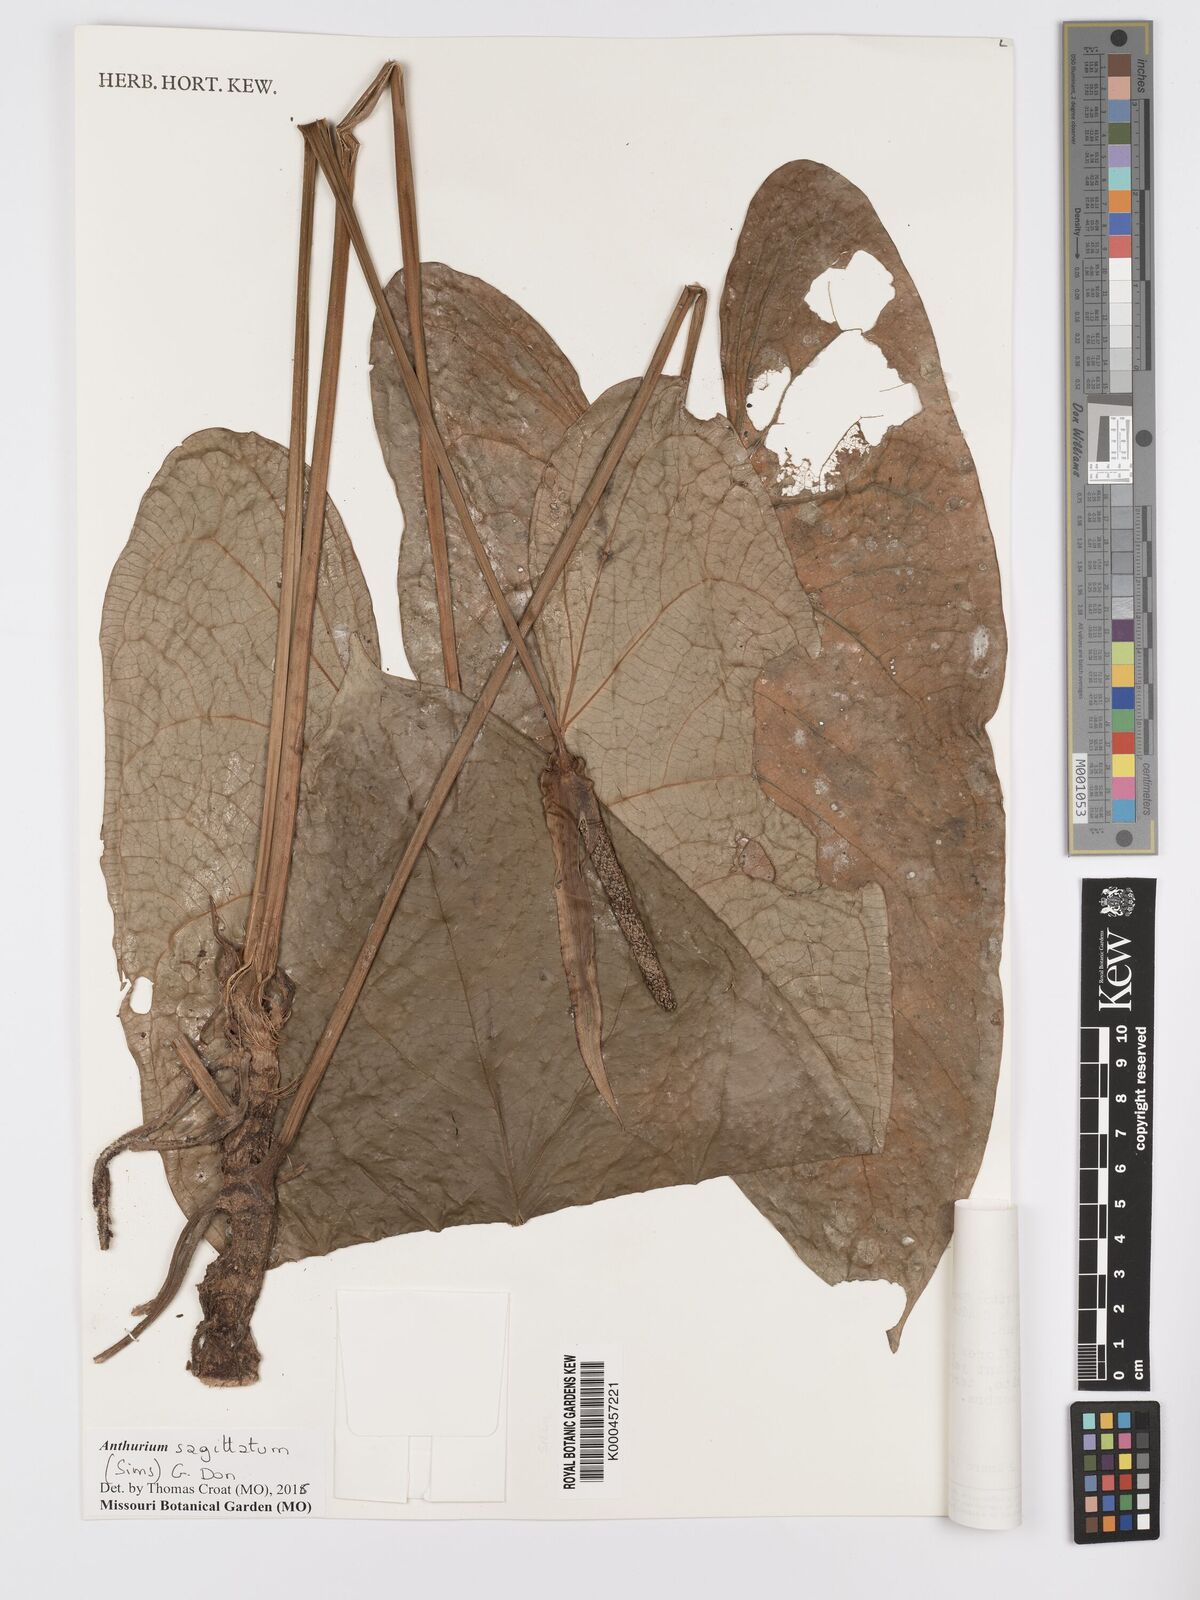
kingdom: Plantae
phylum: Tracheophyta
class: Liliopsida
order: Alismatales
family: Araceae
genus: Anthurium
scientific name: Anthurium sagittatum
